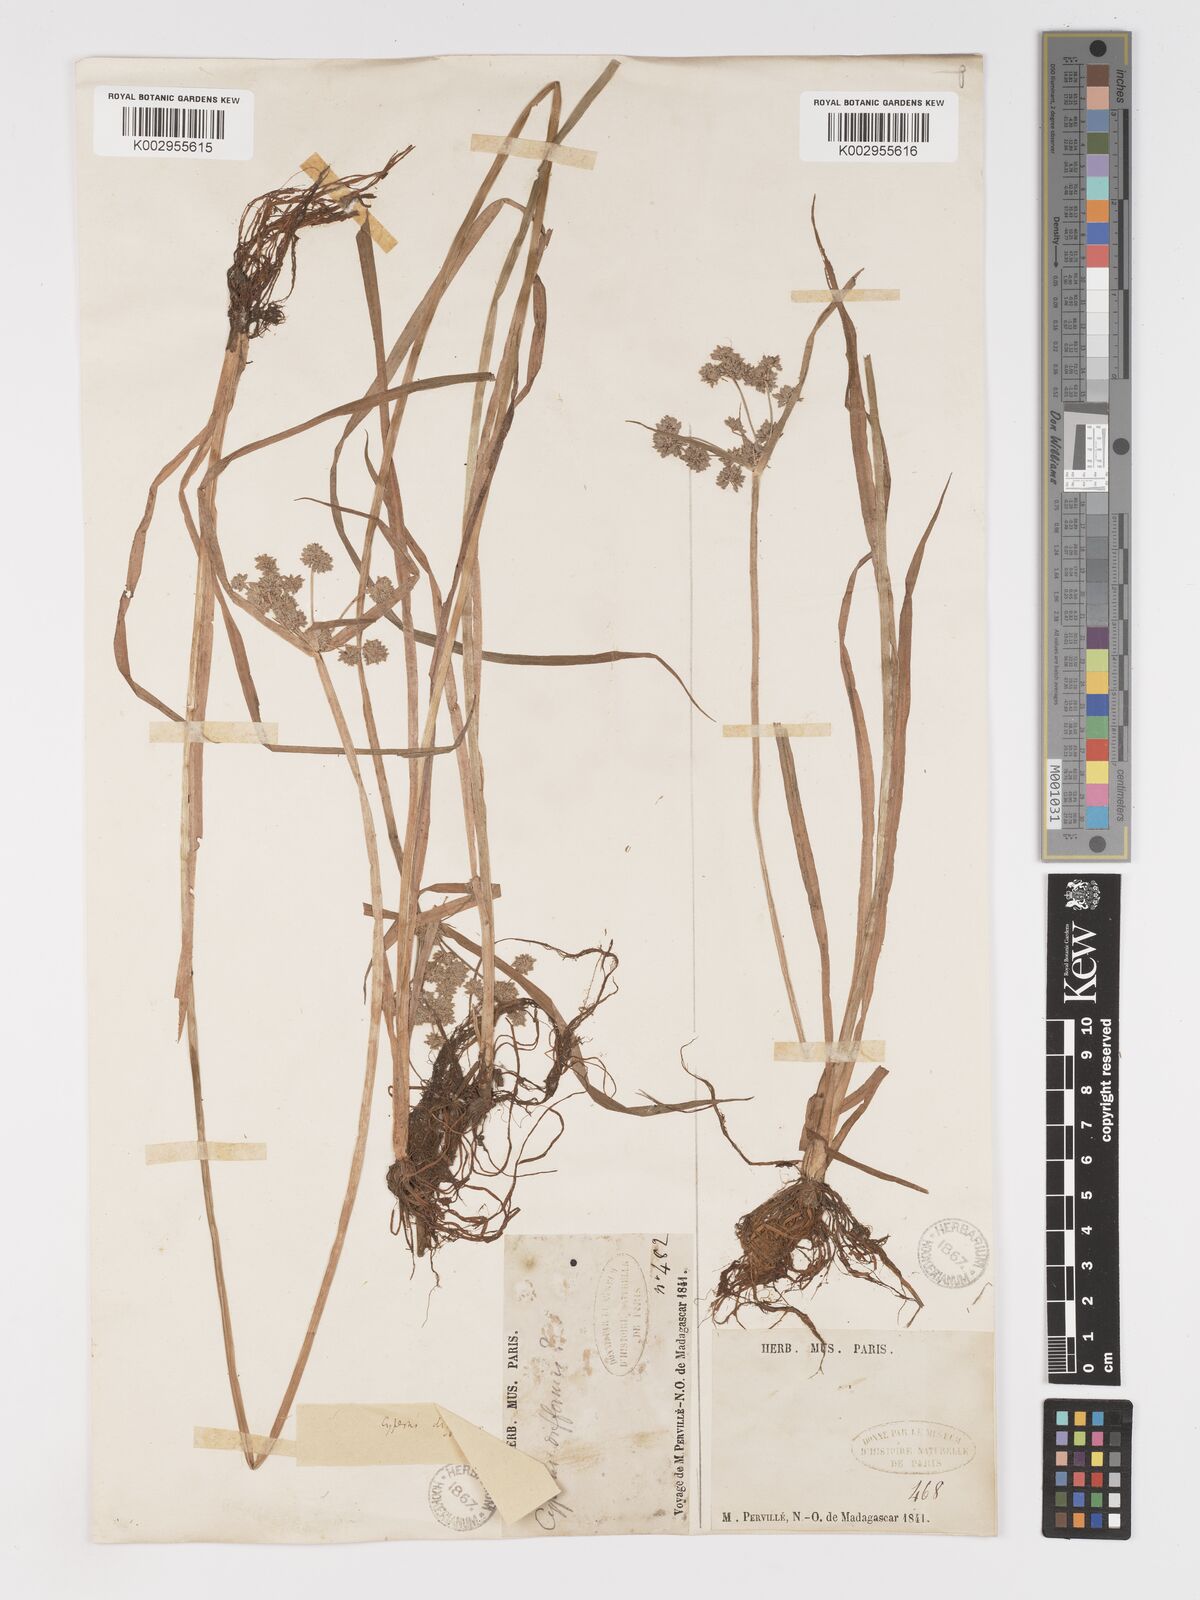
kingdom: Plantae
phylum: Tracheophyta
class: Liliopsida
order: Poales
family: Cyperaceae
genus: Cyperus
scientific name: Cyperus difformis
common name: Variable flatsedge
